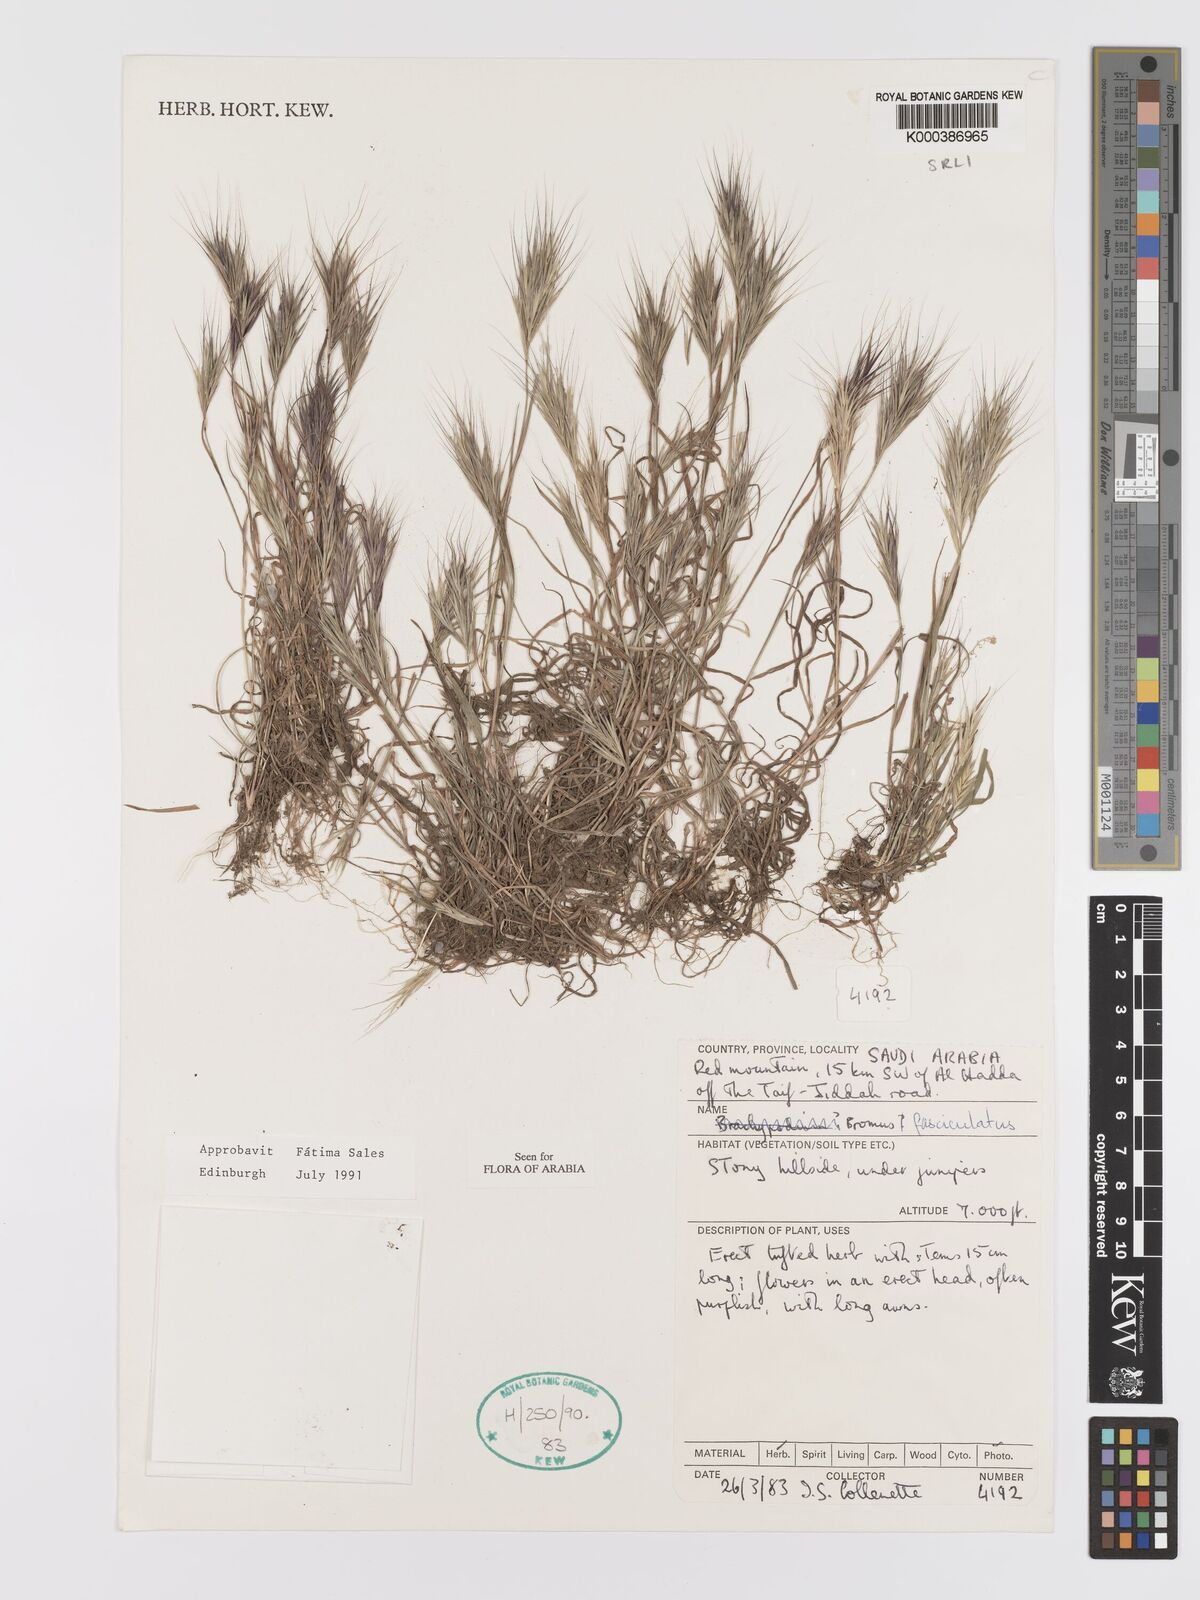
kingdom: Plantae
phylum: Tracheophyta
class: Liliopsida
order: Poales
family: Poaceae
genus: Bromus
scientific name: Bromus fasciculatus
